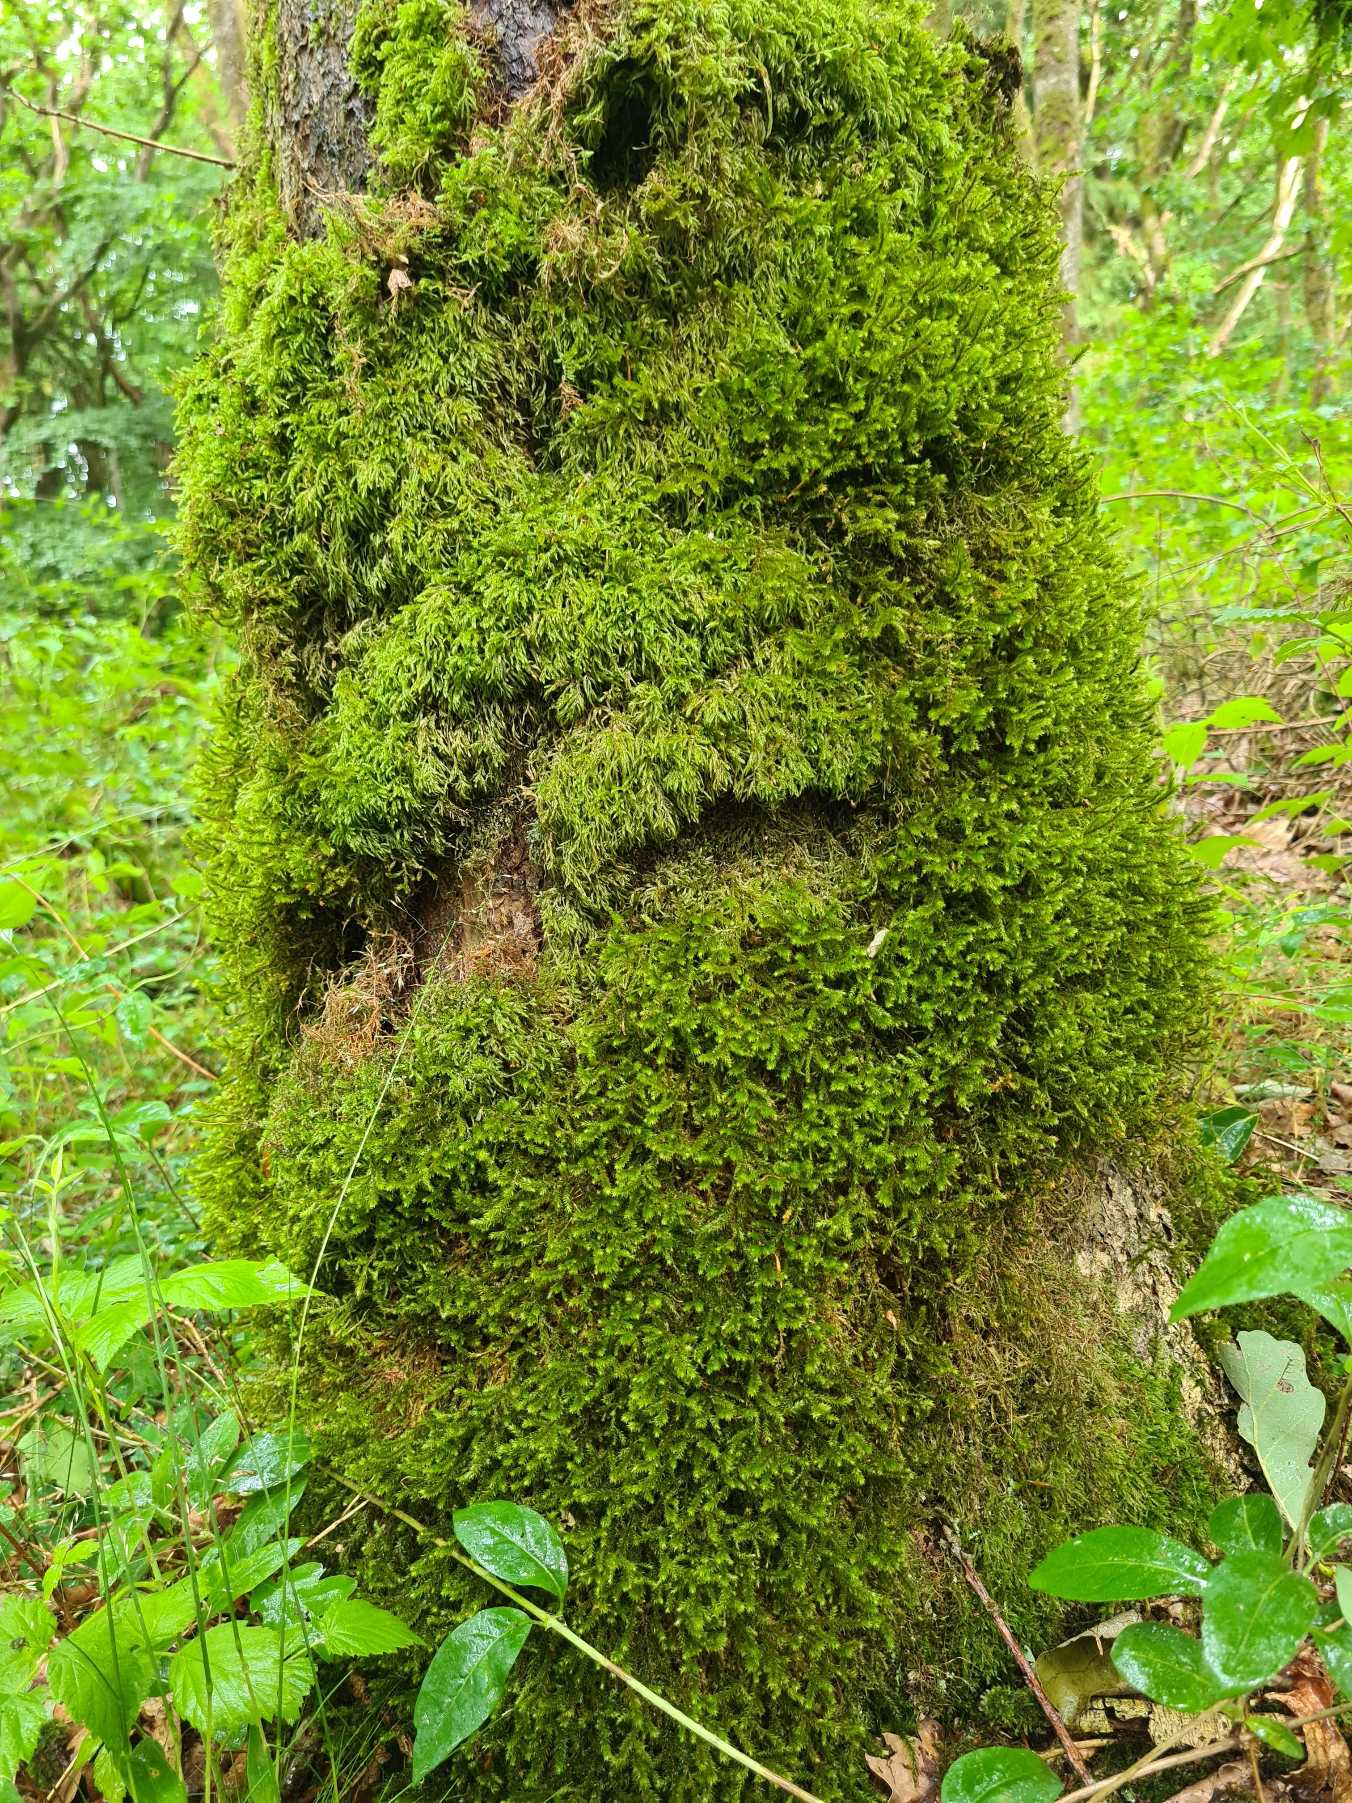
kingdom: Plantae
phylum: Bryophyta
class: Bryopsida
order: Hypnales
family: Antitrichiaceae
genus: Antitrichia
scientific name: Antitrichia curtipendula
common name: Åben krogtand
